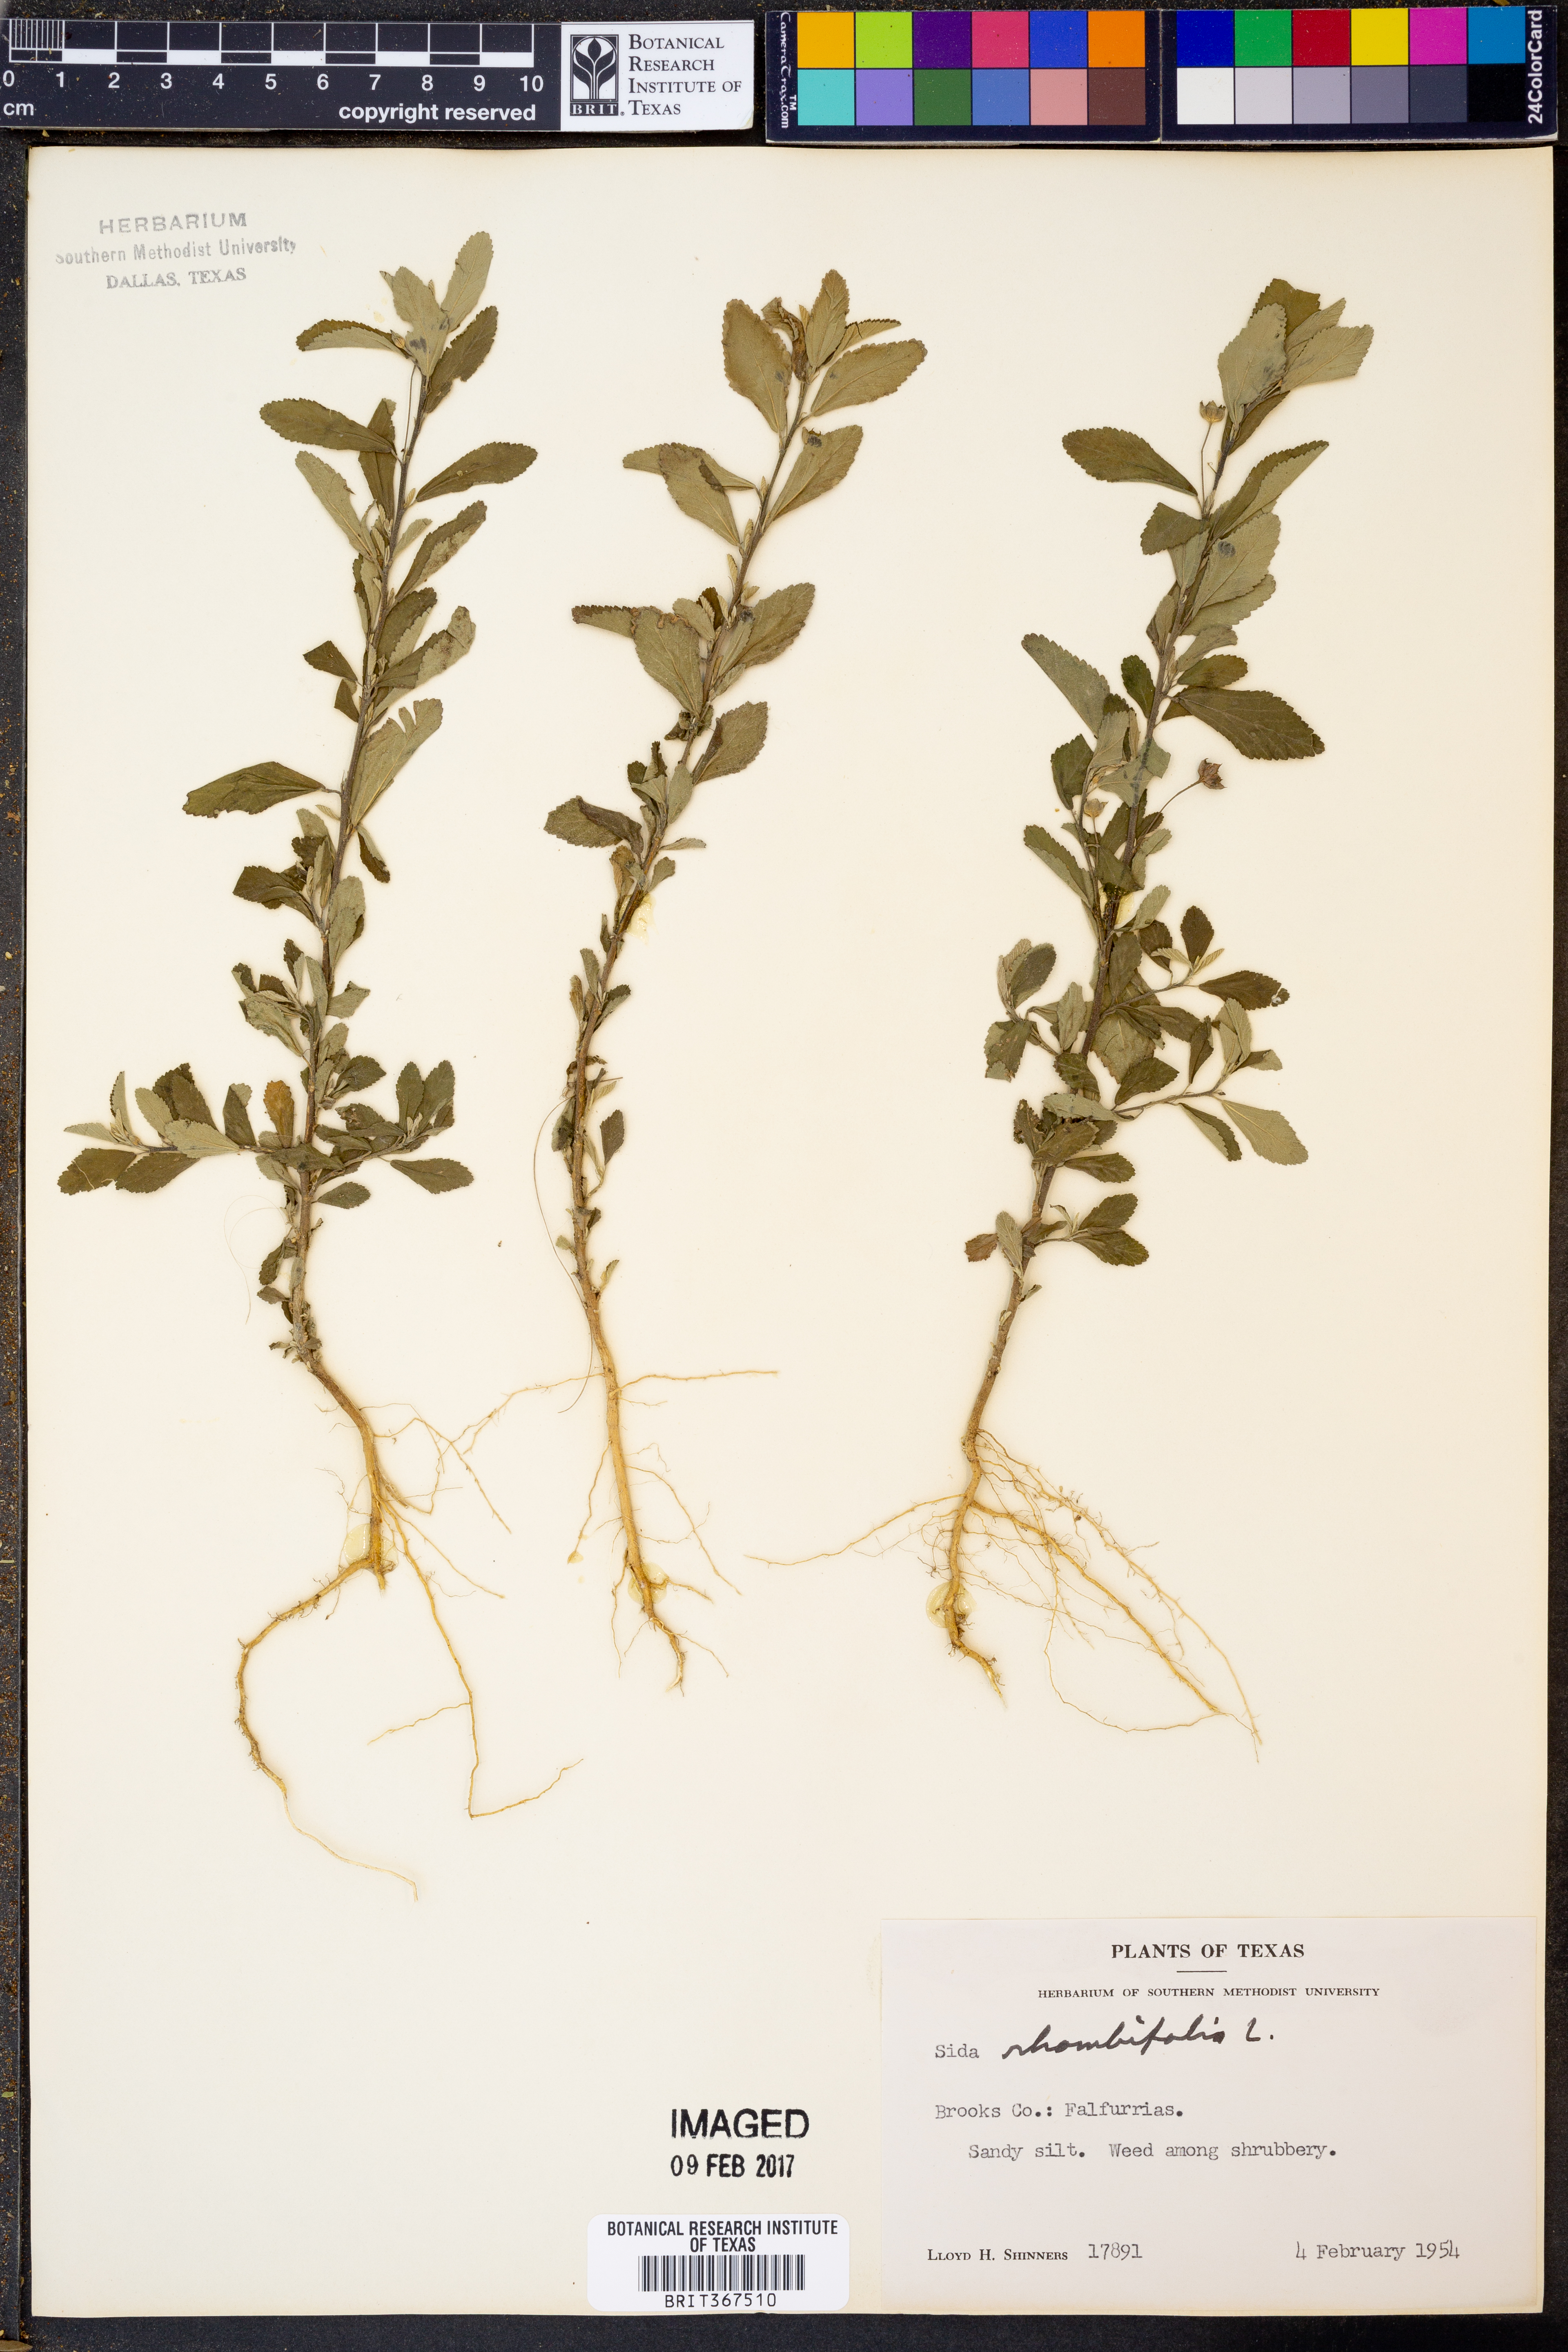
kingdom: Plantae
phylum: Tracheophyta
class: Magnoliopsida
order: Malvales
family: Malvaceae
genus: Sida
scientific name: Sida rhombifolia
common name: Queensland-hemp
